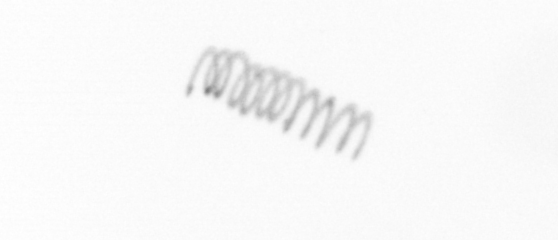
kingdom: Chromista
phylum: Ochrophyta
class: Bacillariophyceae
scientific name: Bacillariophyceae
